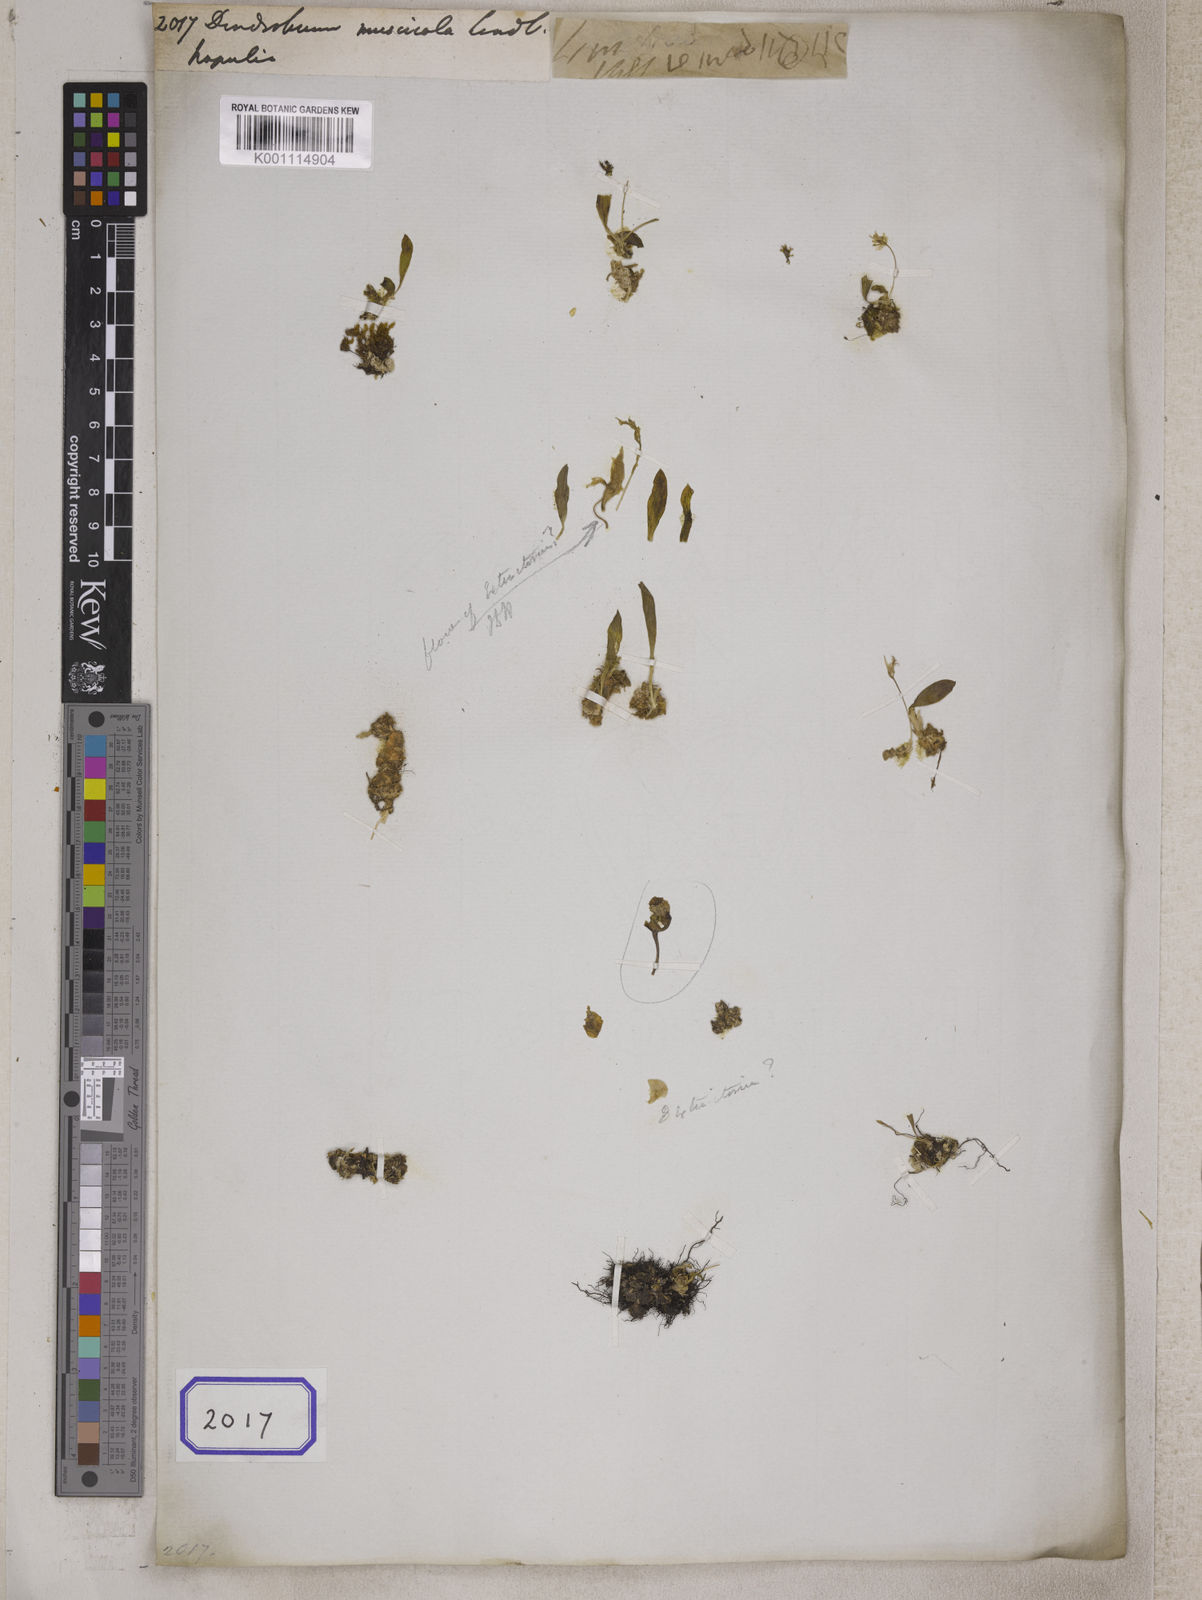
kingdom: Plantae
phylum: Tracheophyta
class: Liliopsida
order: Asparagales
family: Orchidaceae
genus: Porpax
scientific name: Porpax parviflorum
